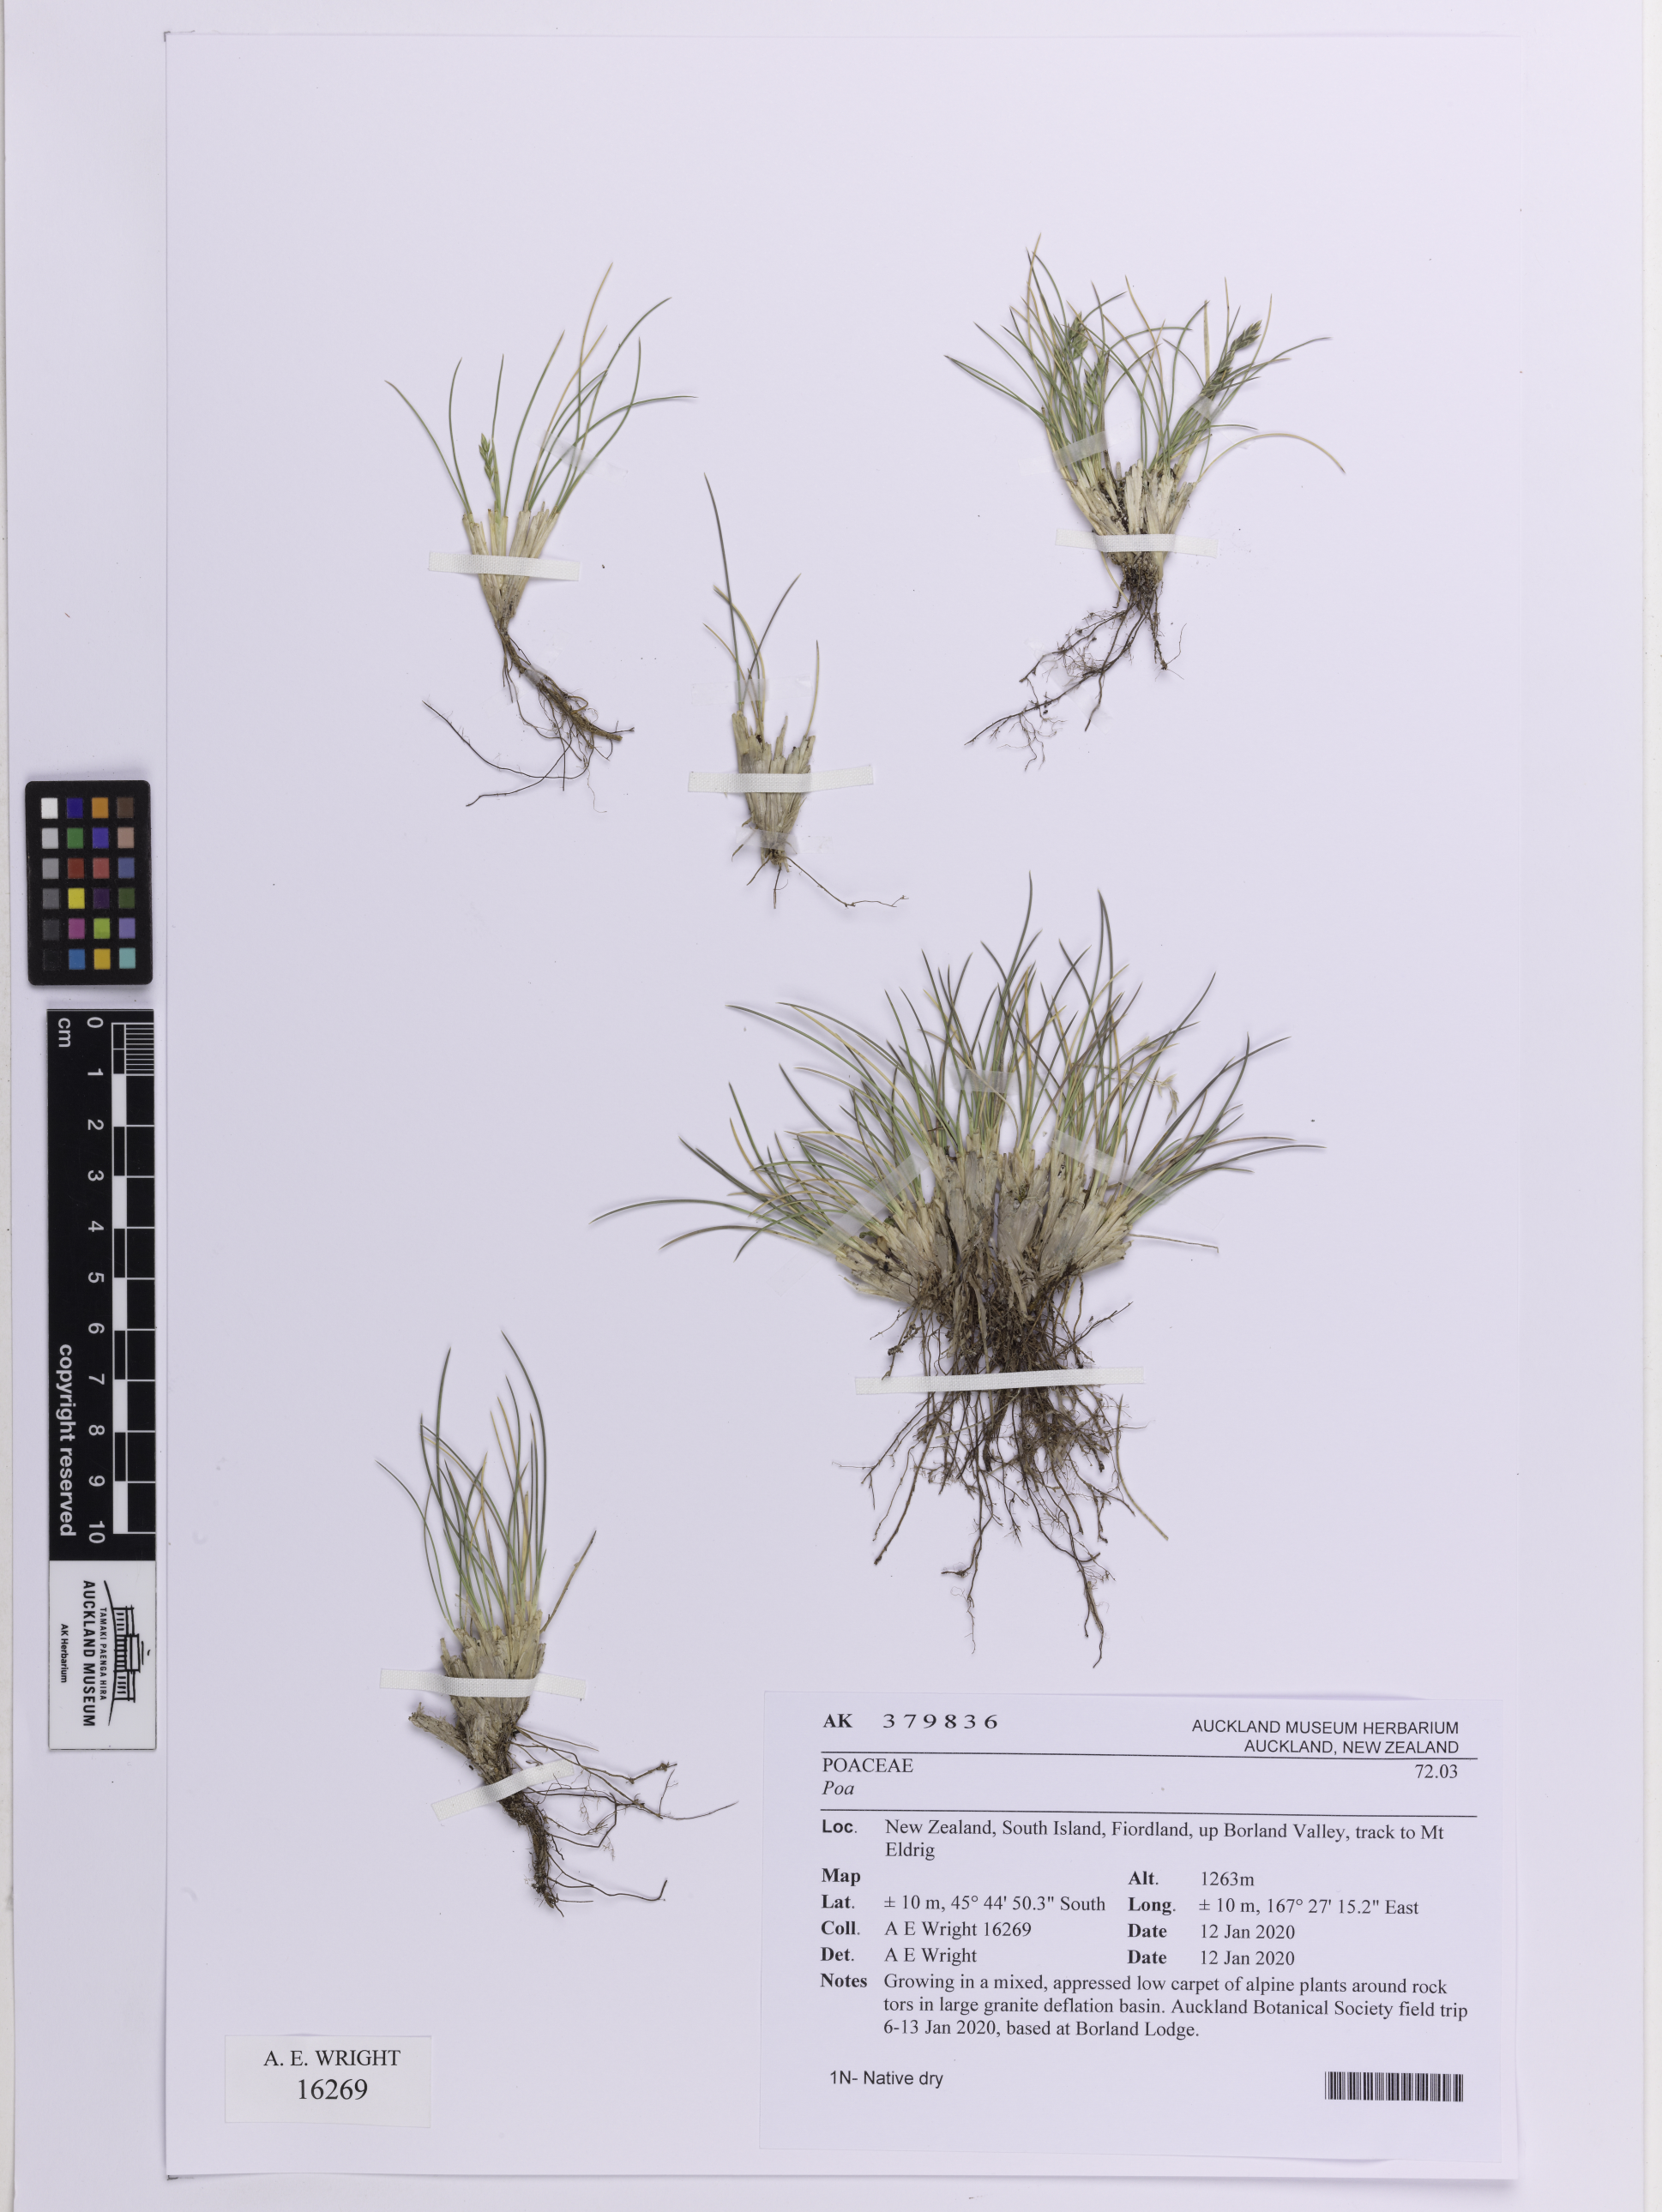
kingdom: Plantae
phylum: Tracheophyta
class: Liliopsida
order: Poales
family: Poaceae
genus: Poa
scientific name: Poa colensoi
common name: Blue tussock
